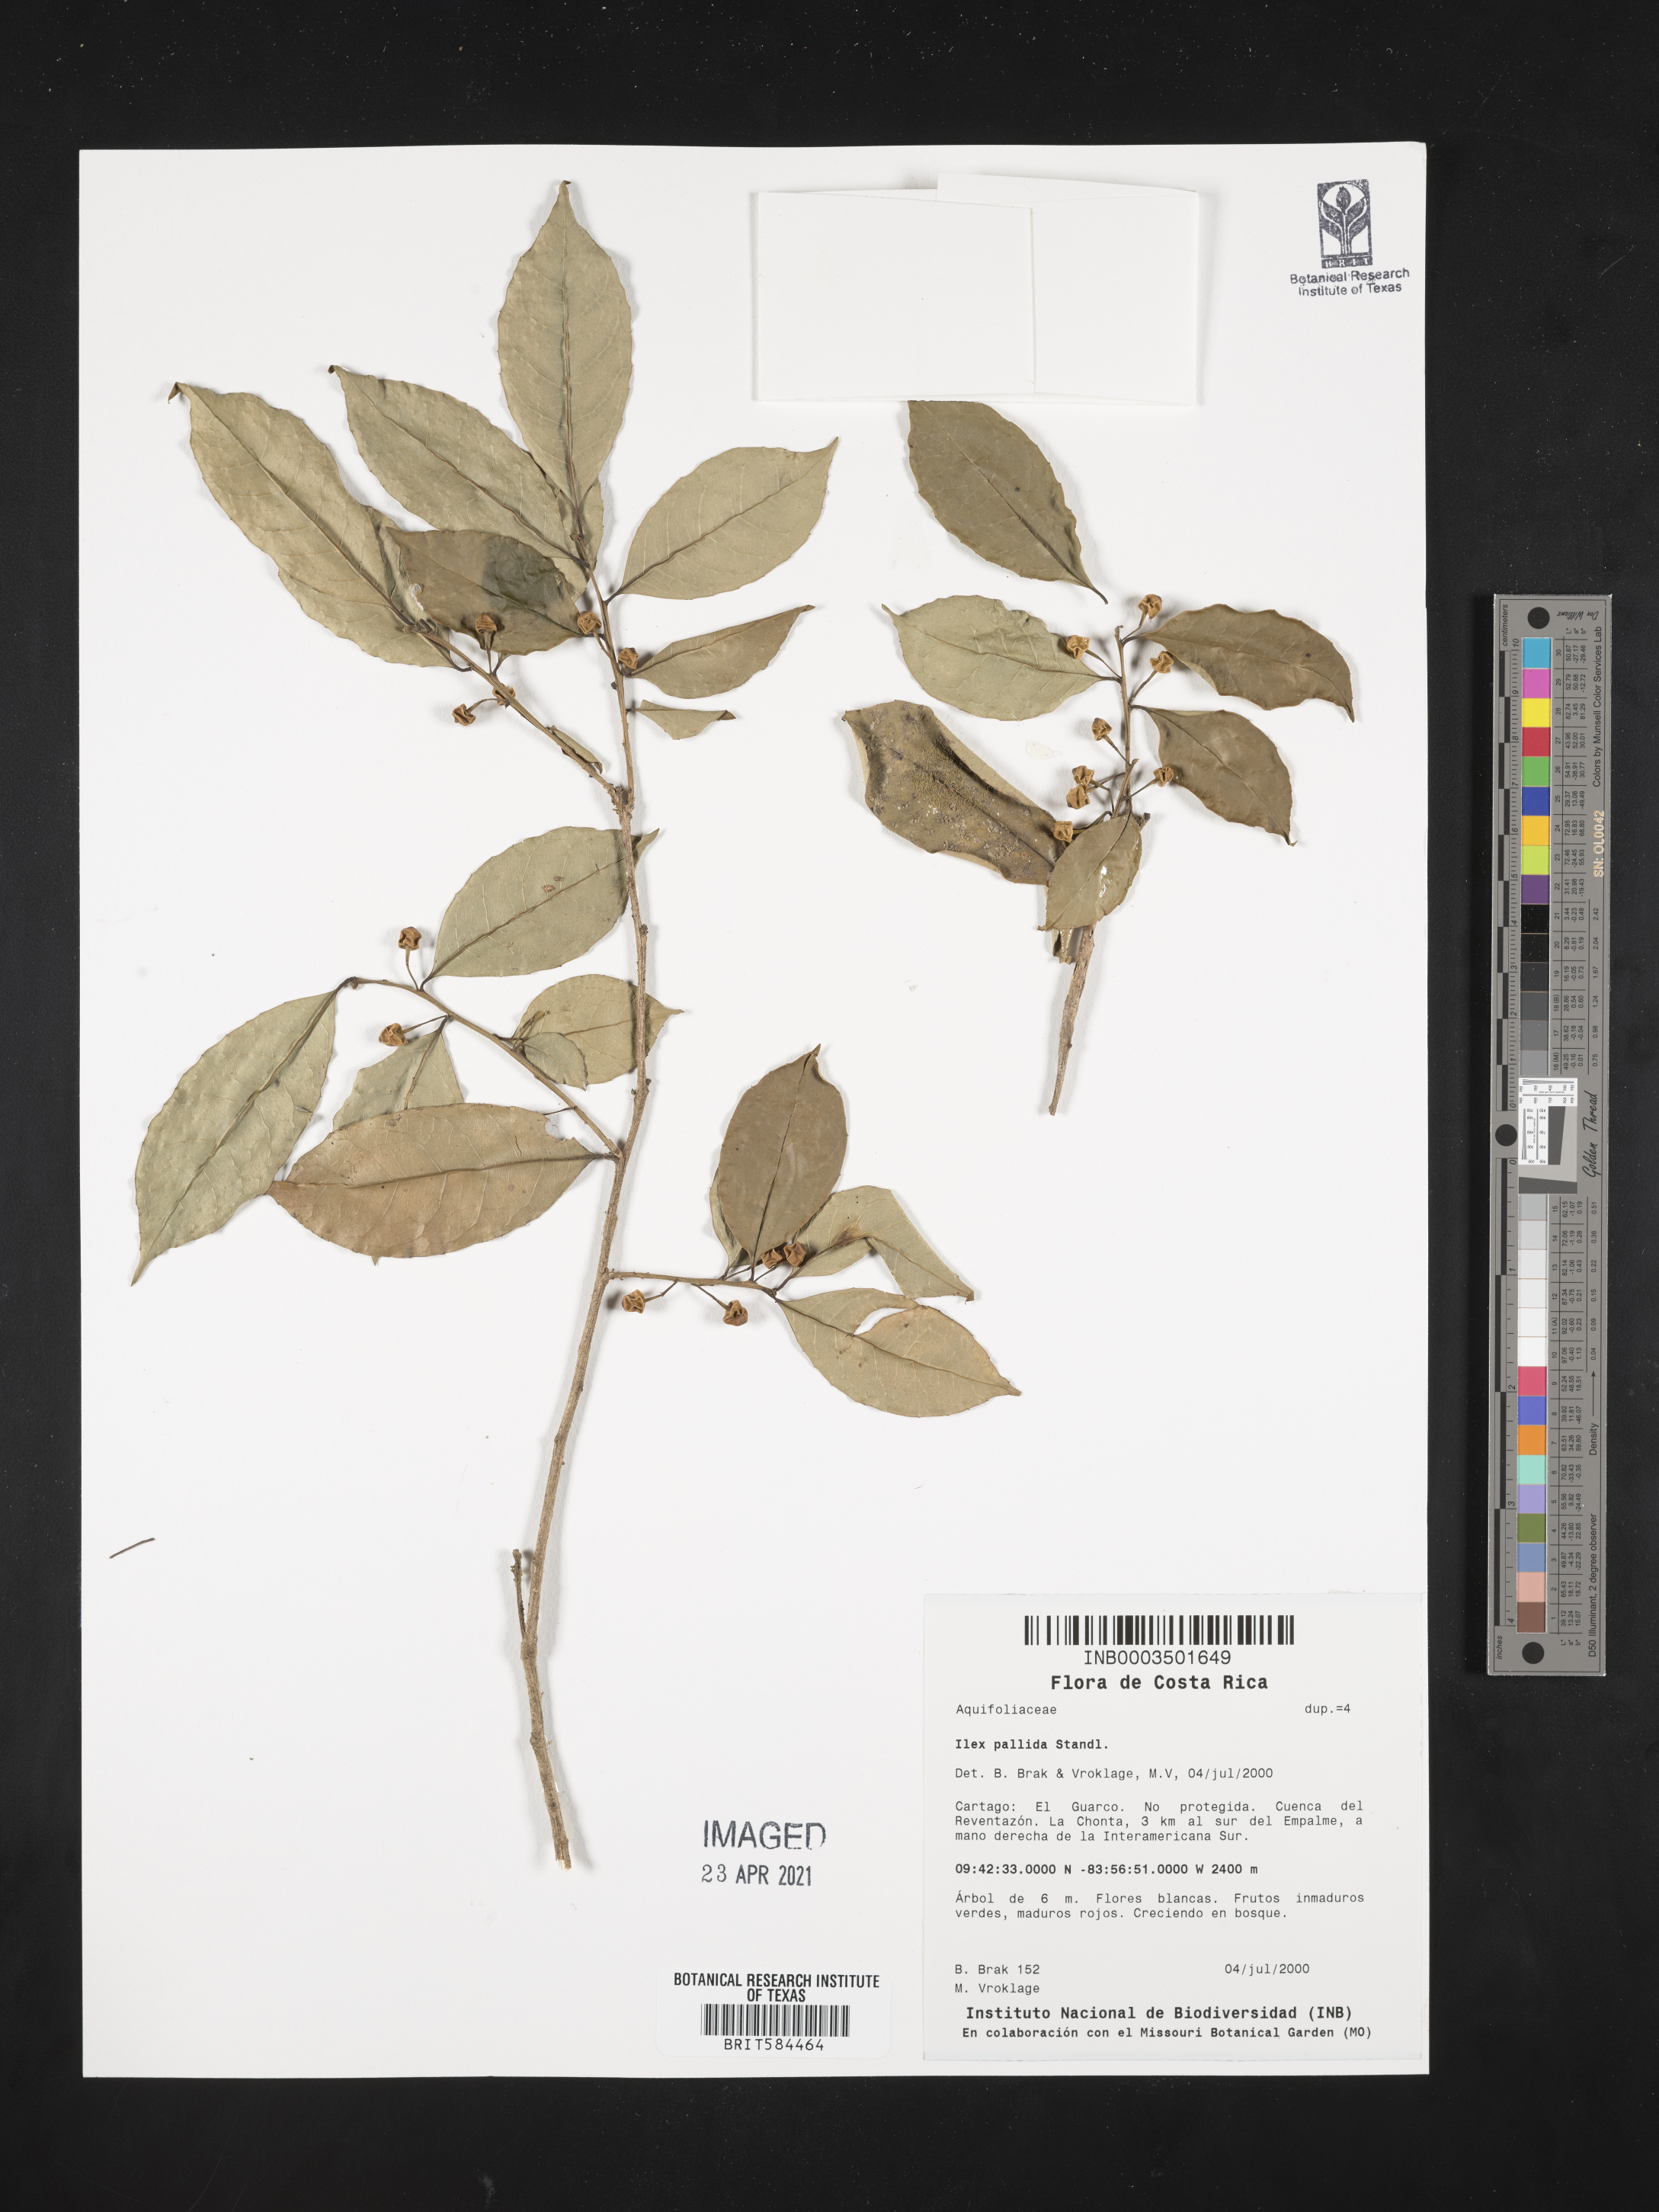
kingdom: Plantae
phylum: Tracheophyta
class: Magnoliopsida
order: Aquifoliales
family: Aquifoliaceae
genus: Ilex
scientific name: Ilex pallida
